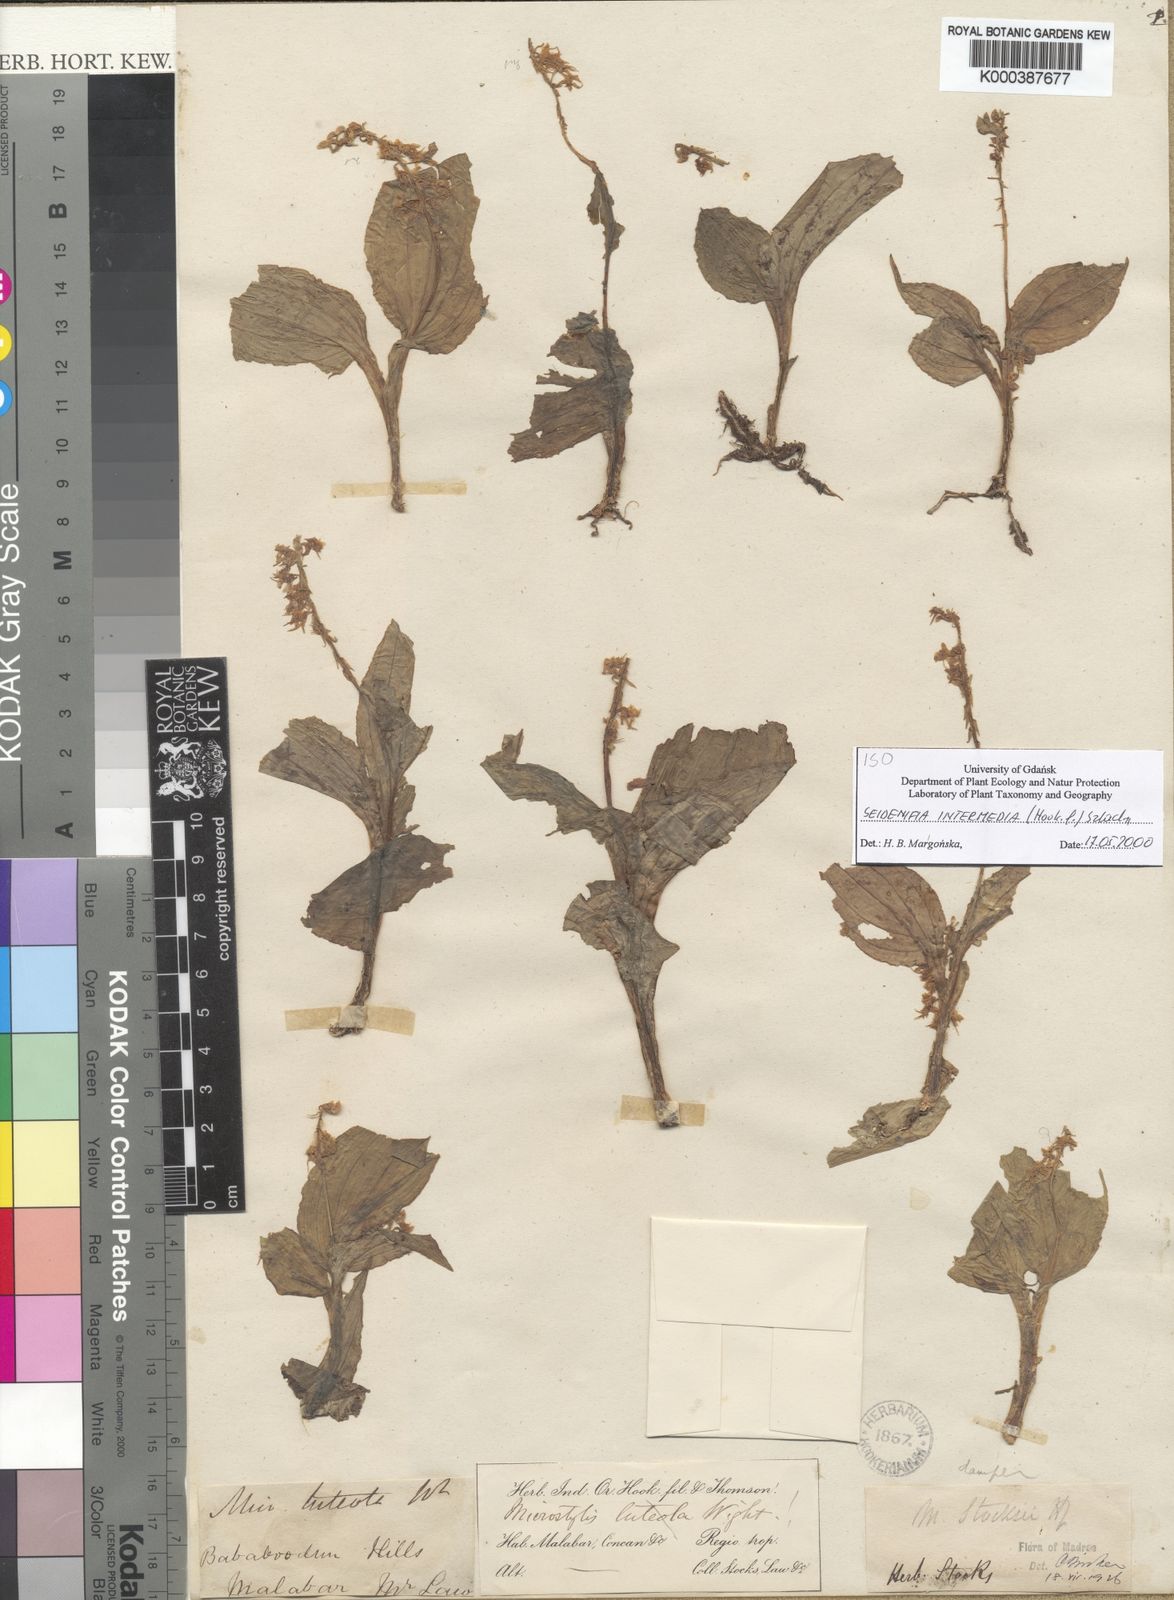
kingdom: Plantae
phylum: Tracheophyta
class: Liliopsida
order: Asparagales
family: Orchidaceae
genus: Crepidium
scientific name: Crepidium
